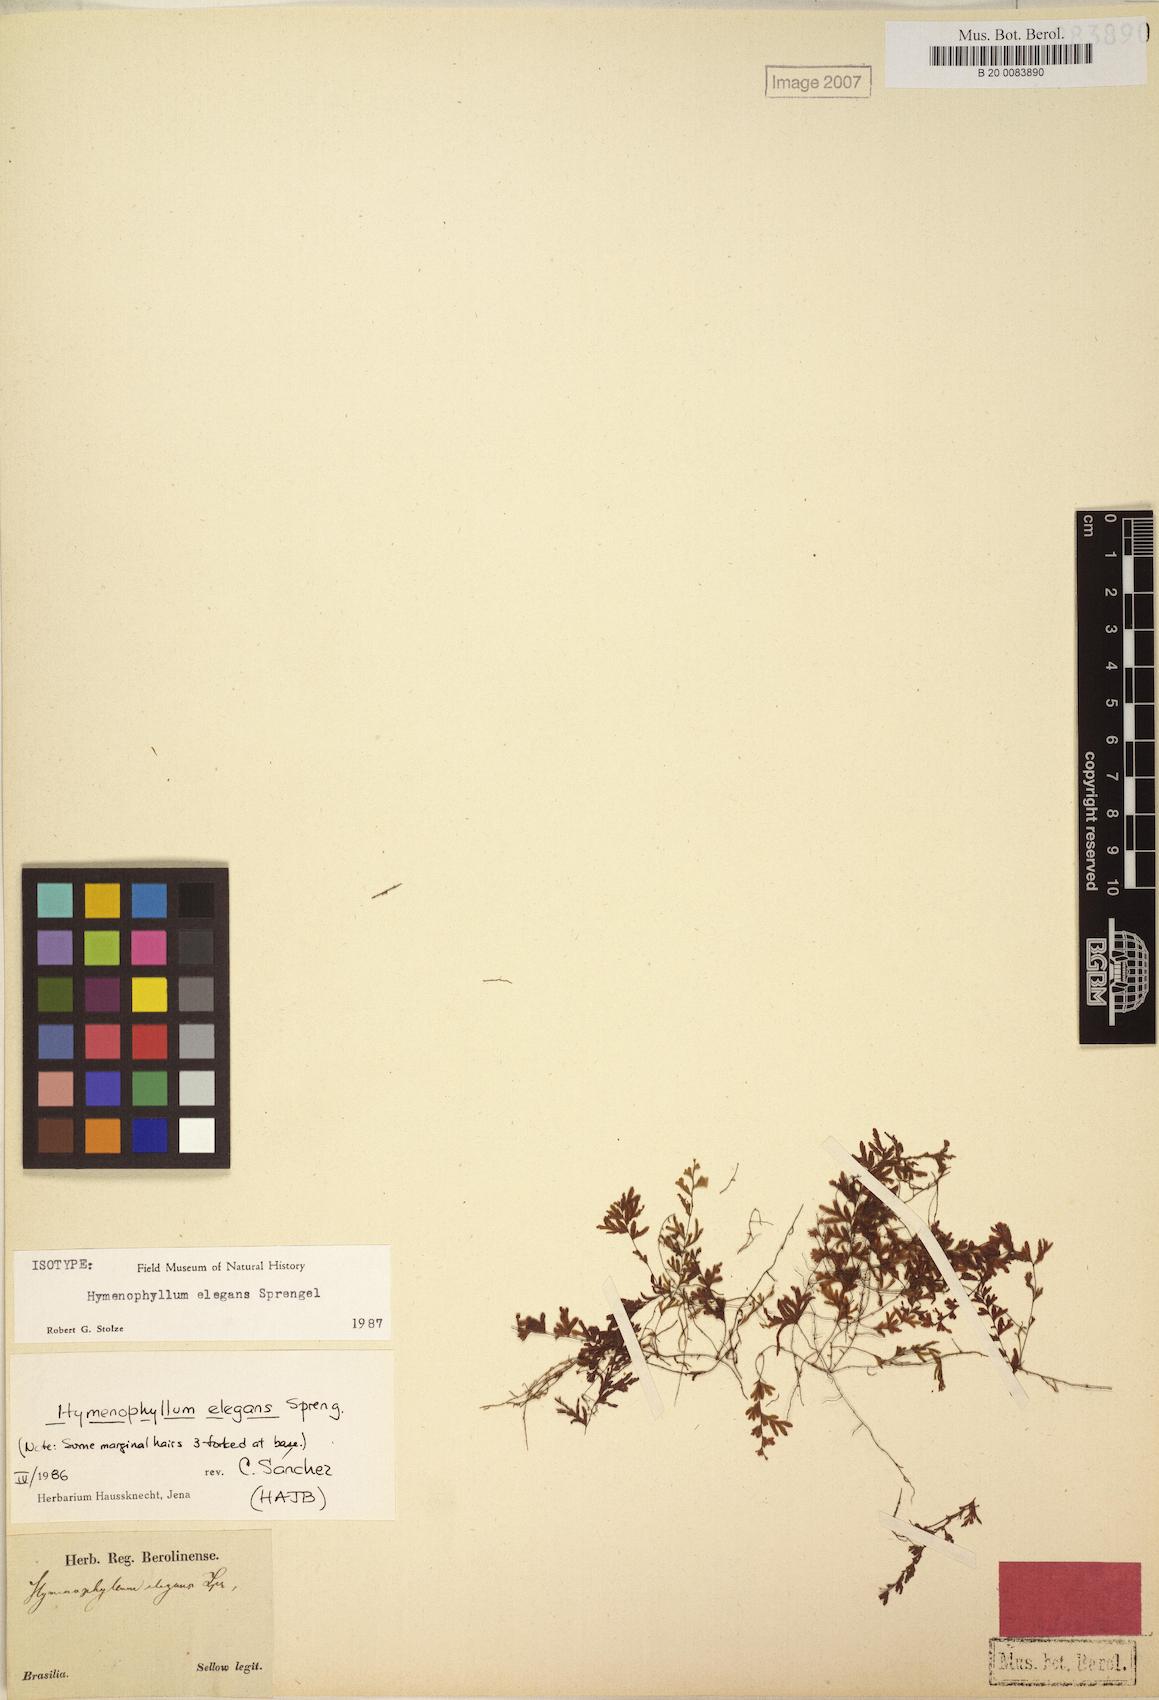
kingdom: Plantae
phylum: Tracheophyta
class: Polypodiopsida
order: Hymenophyllales
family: Hymenophyllaceae
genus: Hymenophyllum
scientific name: Hymenophyllum elegans
